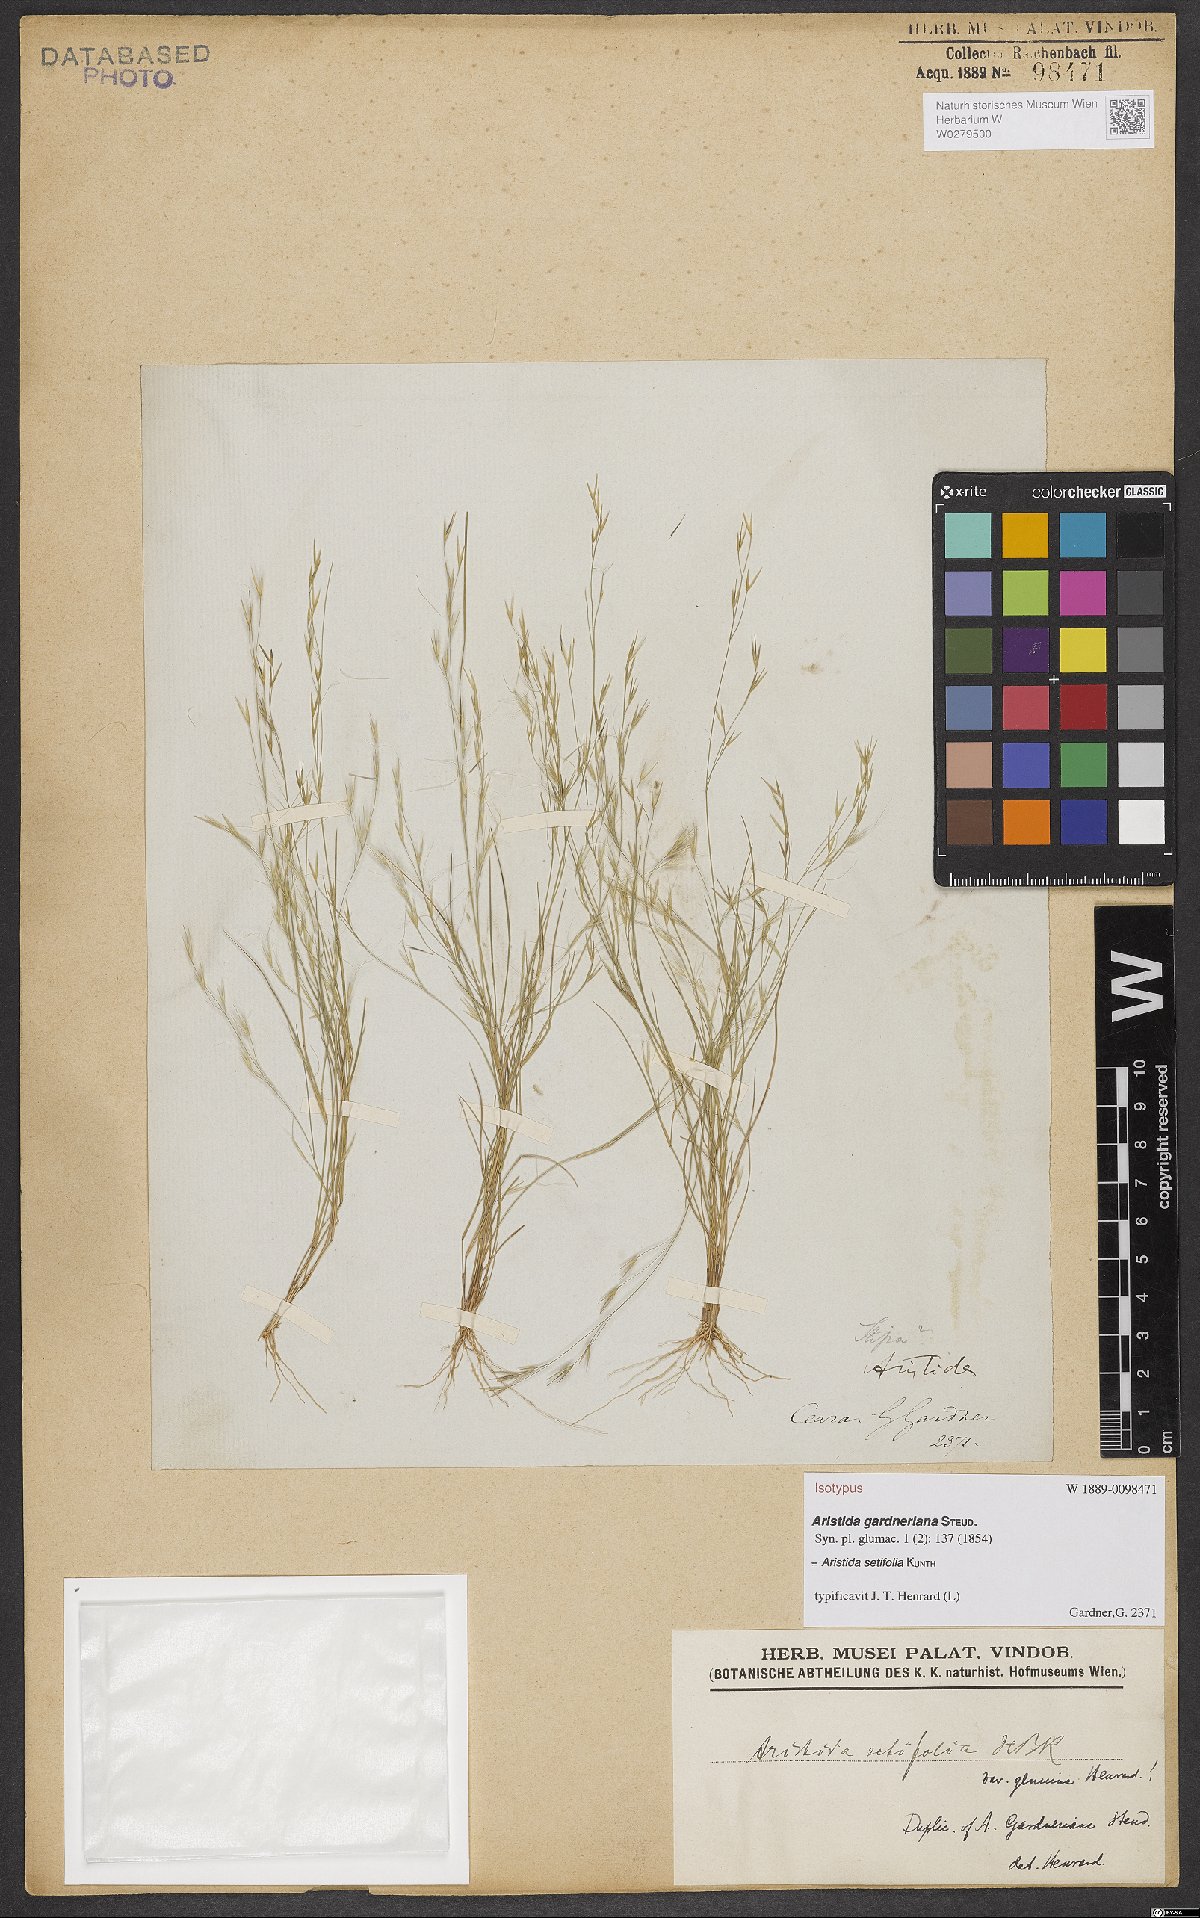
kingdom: Plantae
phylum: Tracheophyta
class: Liliopsida
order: Poales
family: Poaceae
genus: Aristida
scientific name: Aristida setifolia
